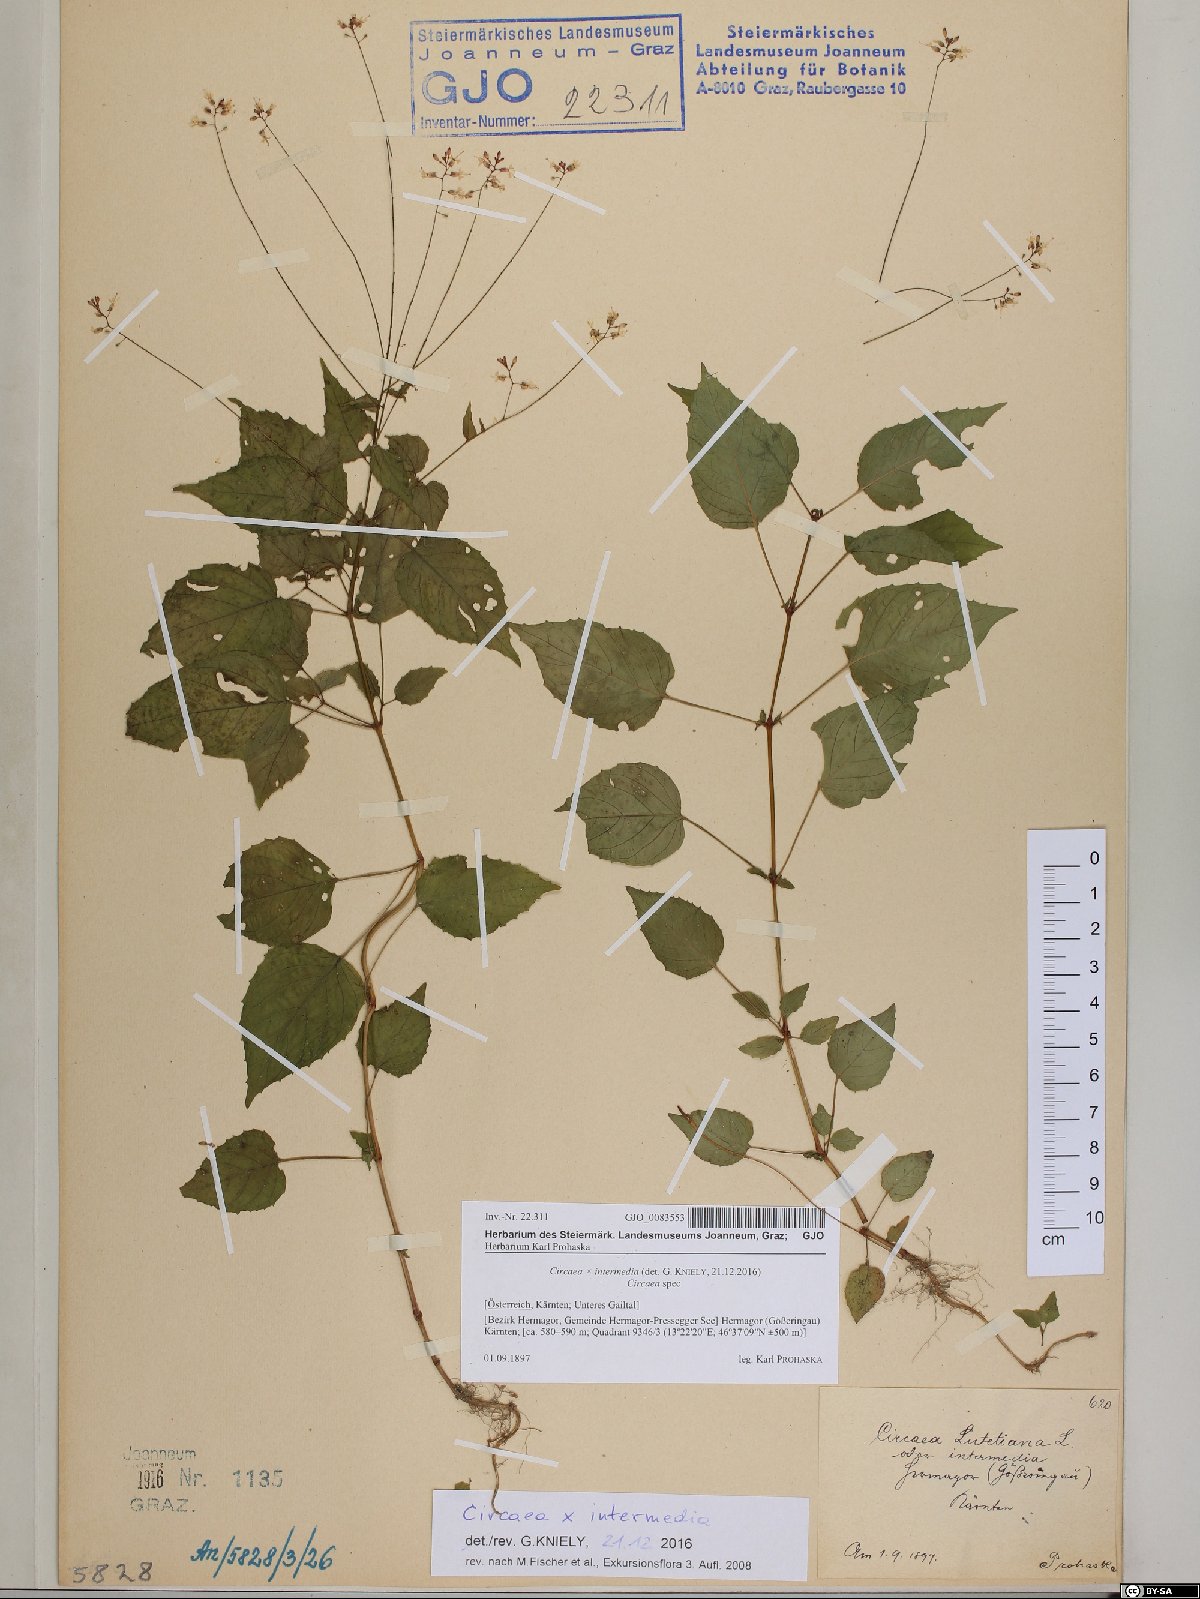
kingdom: Plantae
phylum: Tracheophyta
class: Magnoliopsida
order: Myrtales
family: Onagraceae
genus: Circaea
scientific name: Circaea intermedia
